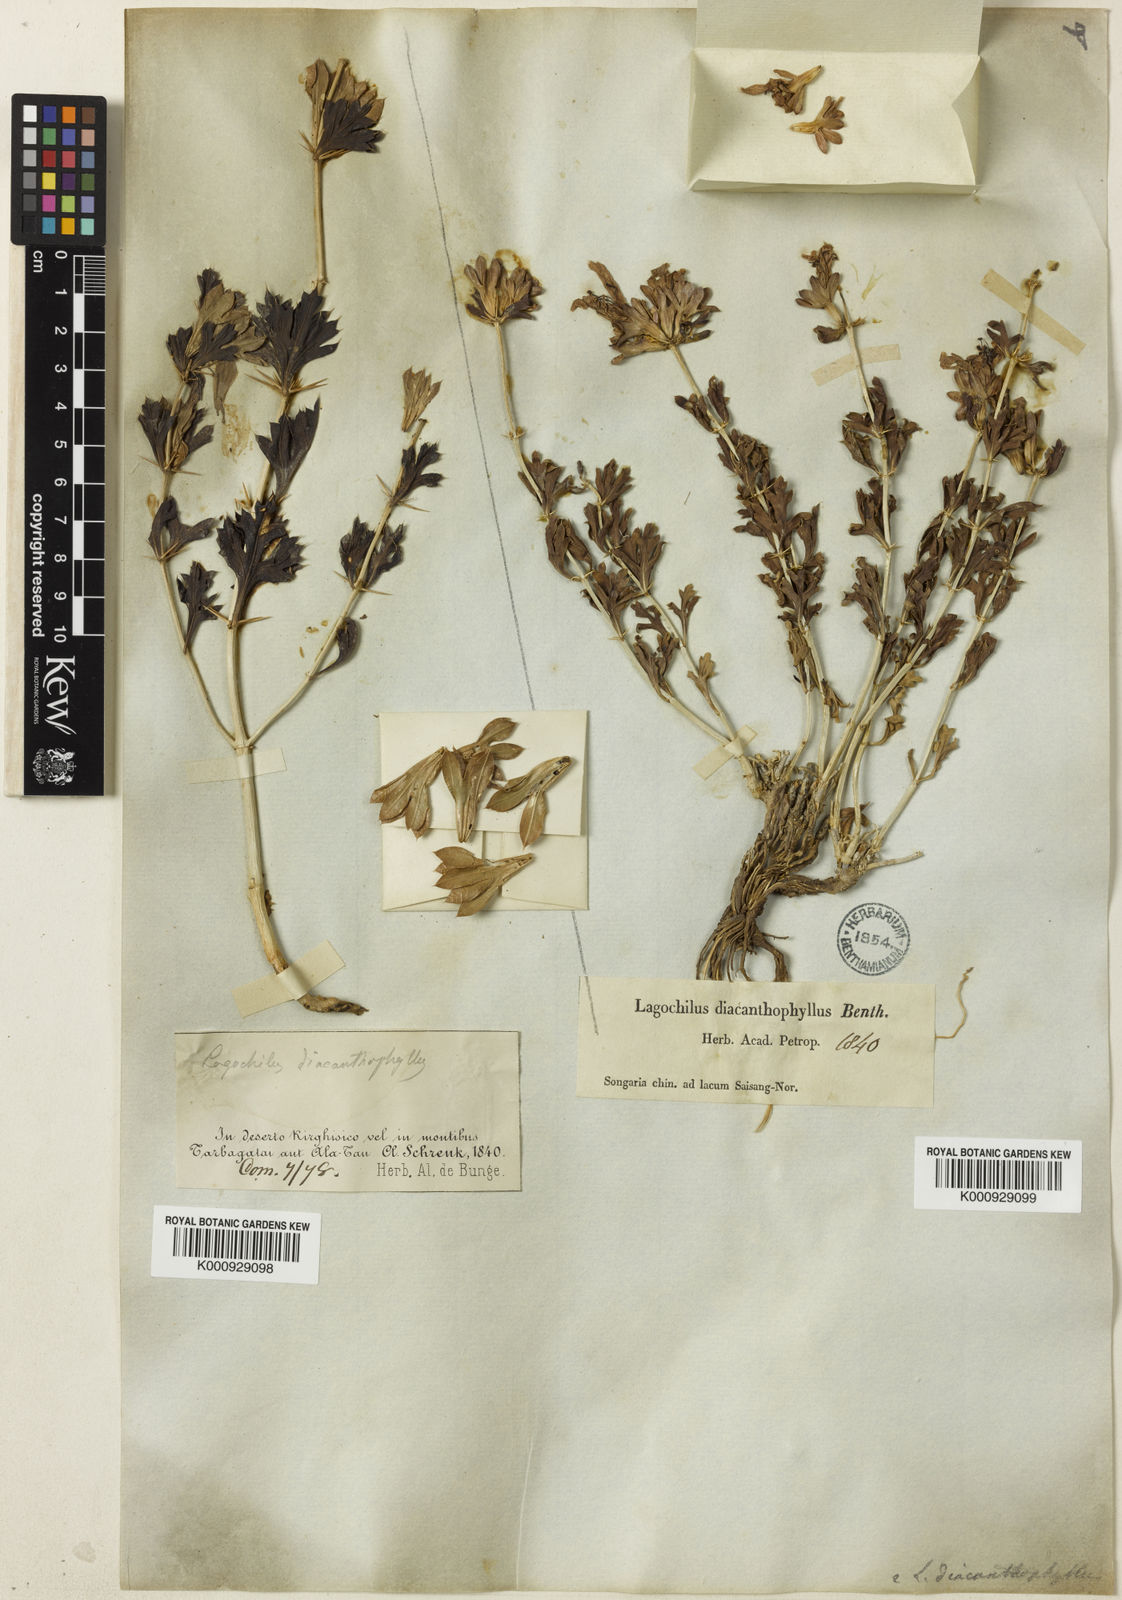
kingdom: Plantae
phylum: Tracheophyta
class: Magnoliopsida
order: Lamiales
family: Lamiaceae
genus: Lagochilus
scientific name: Lagochilus diacanthophyllus
